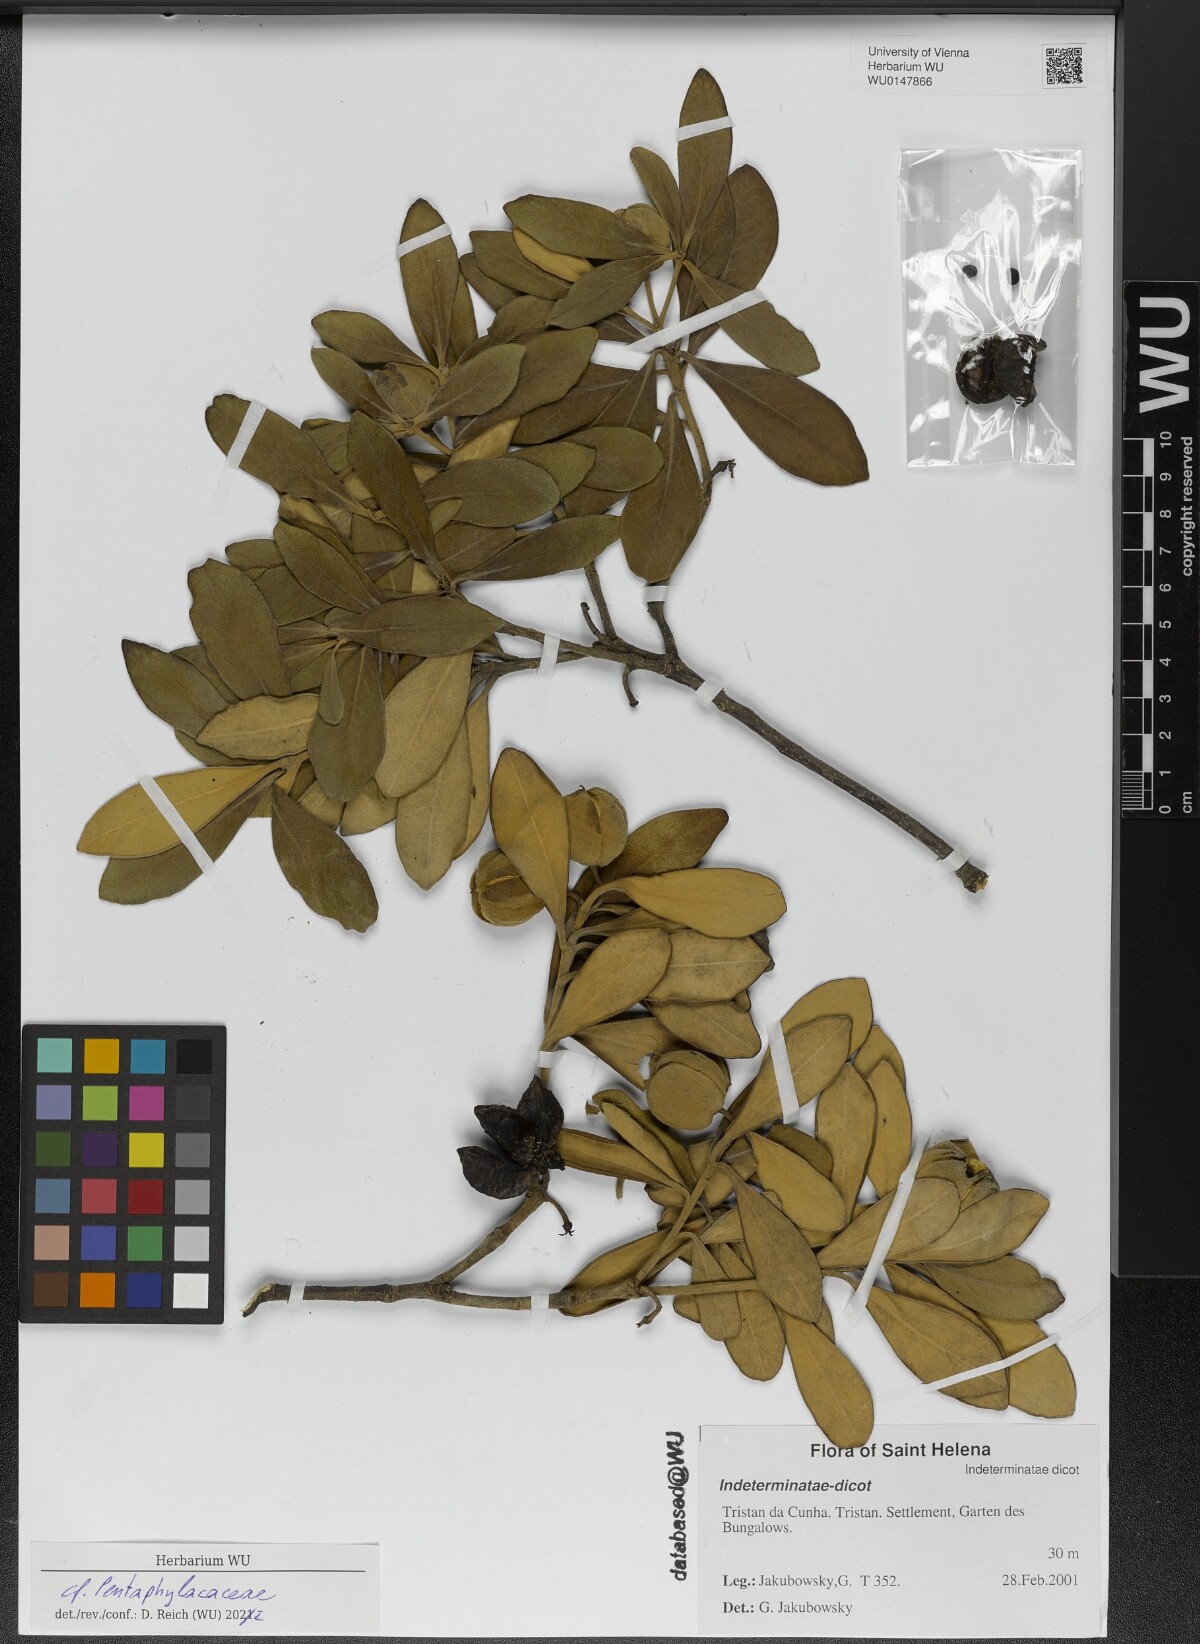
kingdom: Plantae
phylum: Tracheophyta
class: Magnoliopsida
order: Ericales
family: Pentaphylacaceae
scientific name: Pentaphylacaceae
